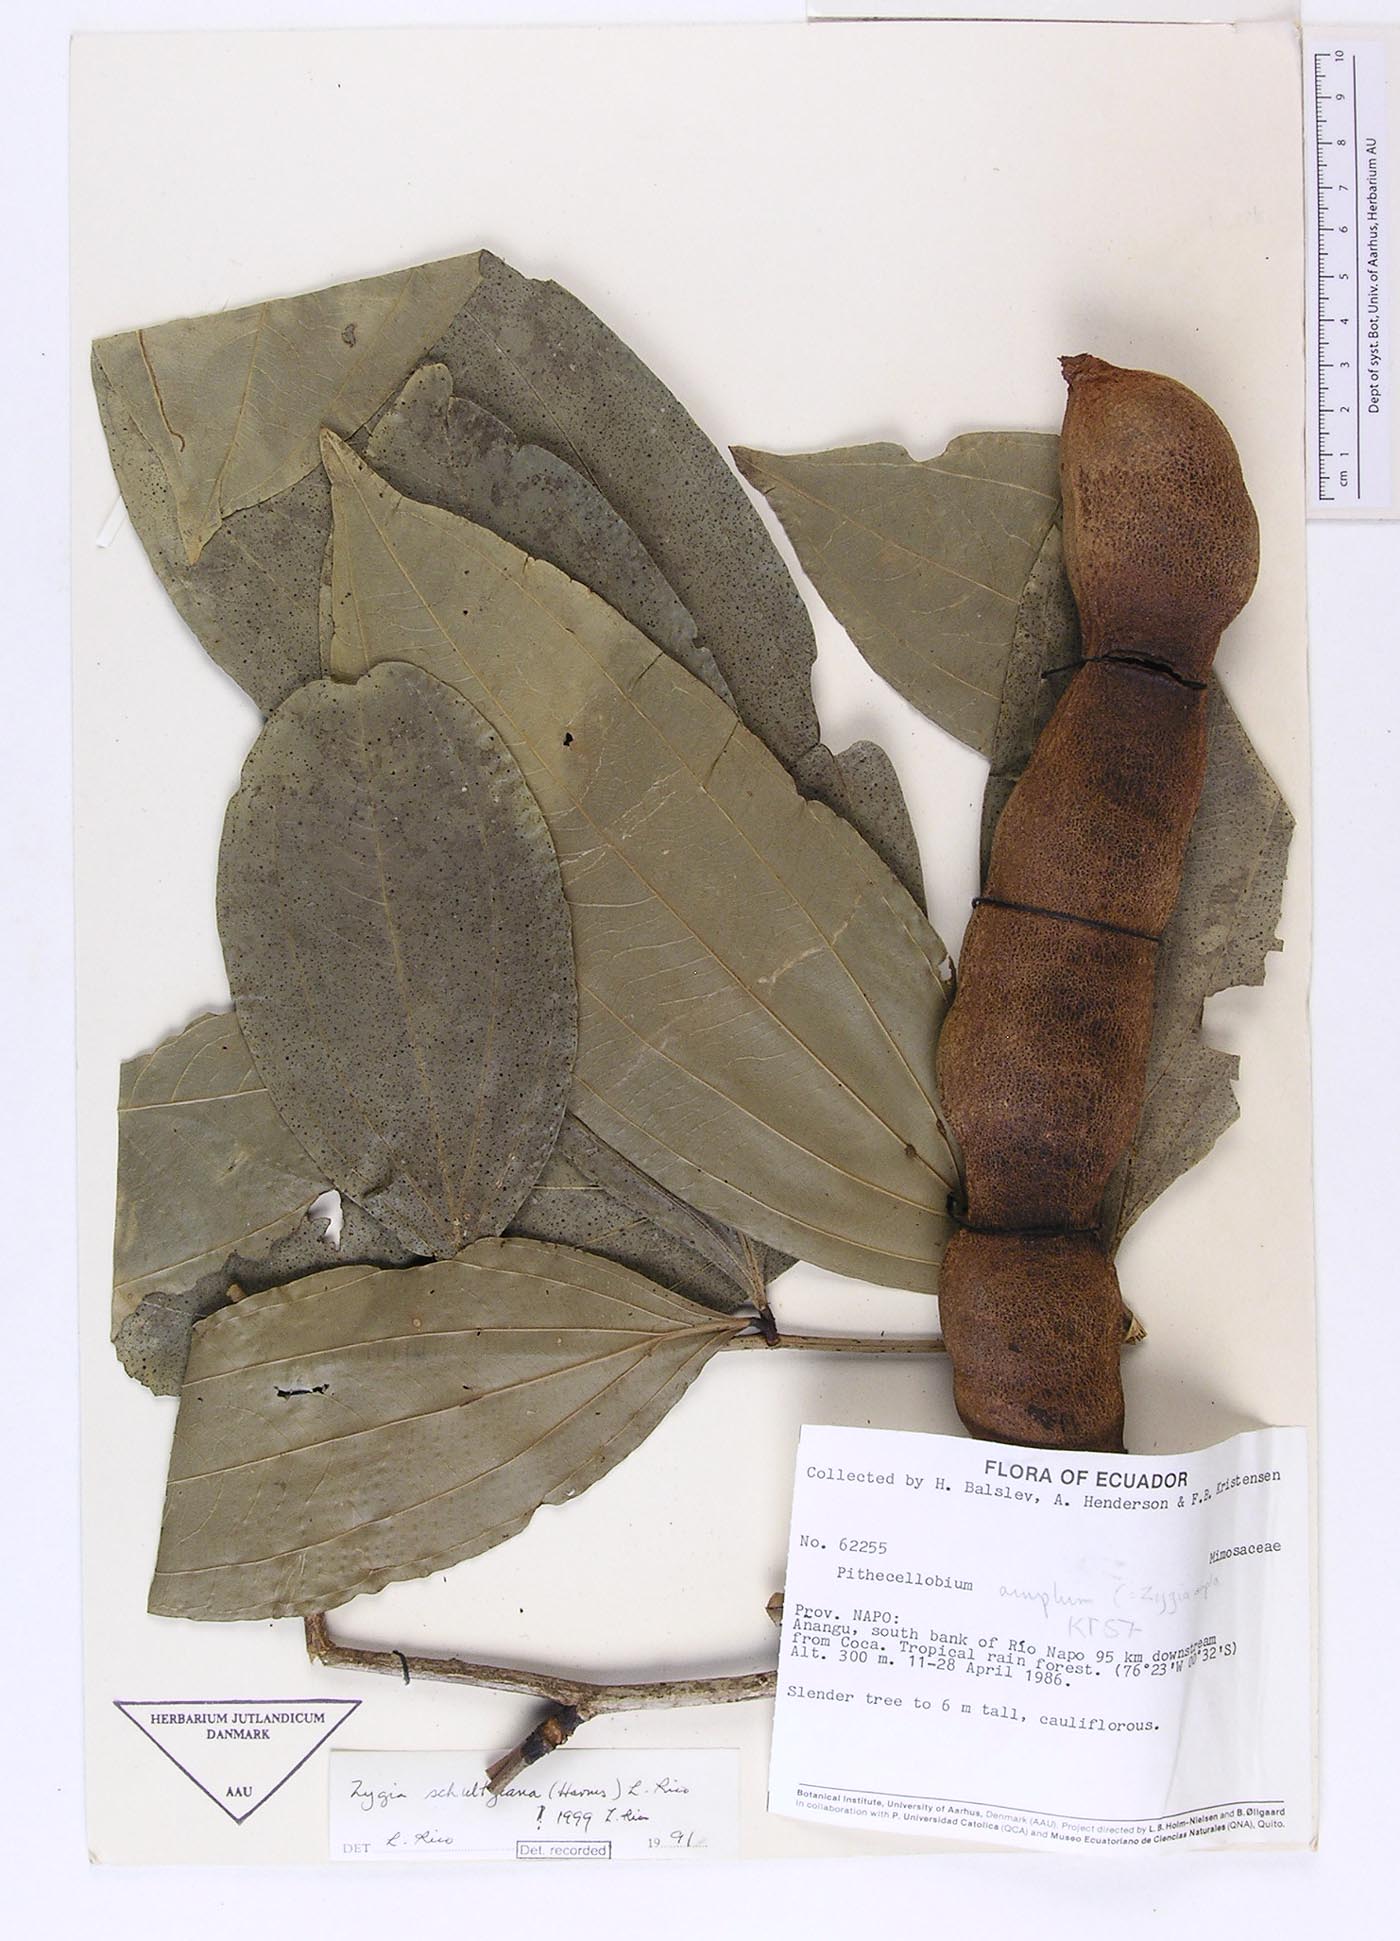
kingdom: Plantae
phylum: Tracheophyta
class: Magnoliopsida
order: Fabales
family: Fabaceae
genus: Zygia
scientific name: Zygia coccinea
